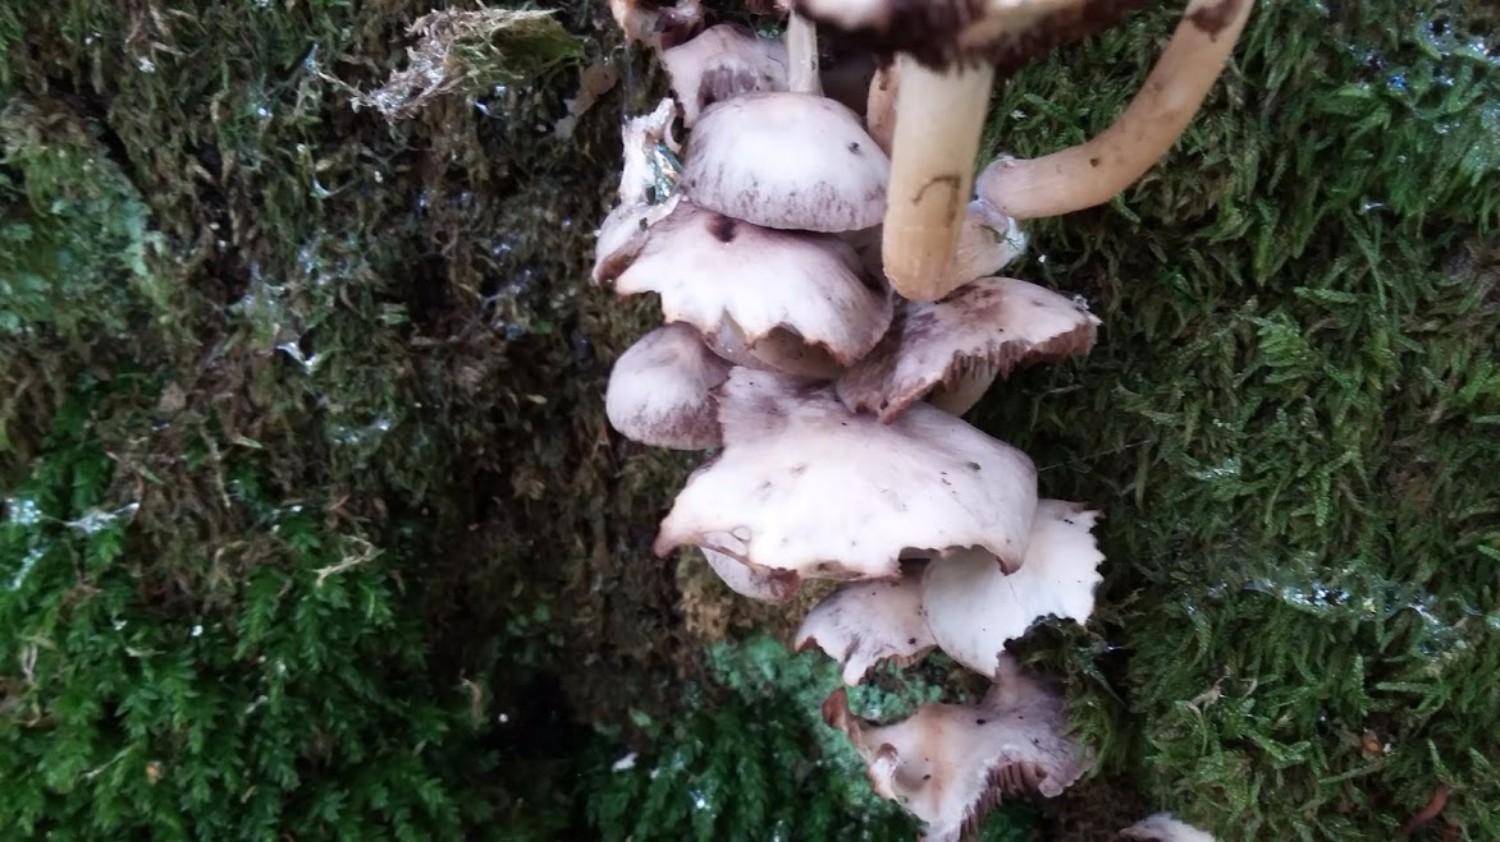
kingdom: Fungi
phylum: Basidiomycota
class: Agaricomycetes
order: Agaricales
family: Psathyrellaceae
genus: Homophron
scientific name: Homophron
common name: mørkhat
